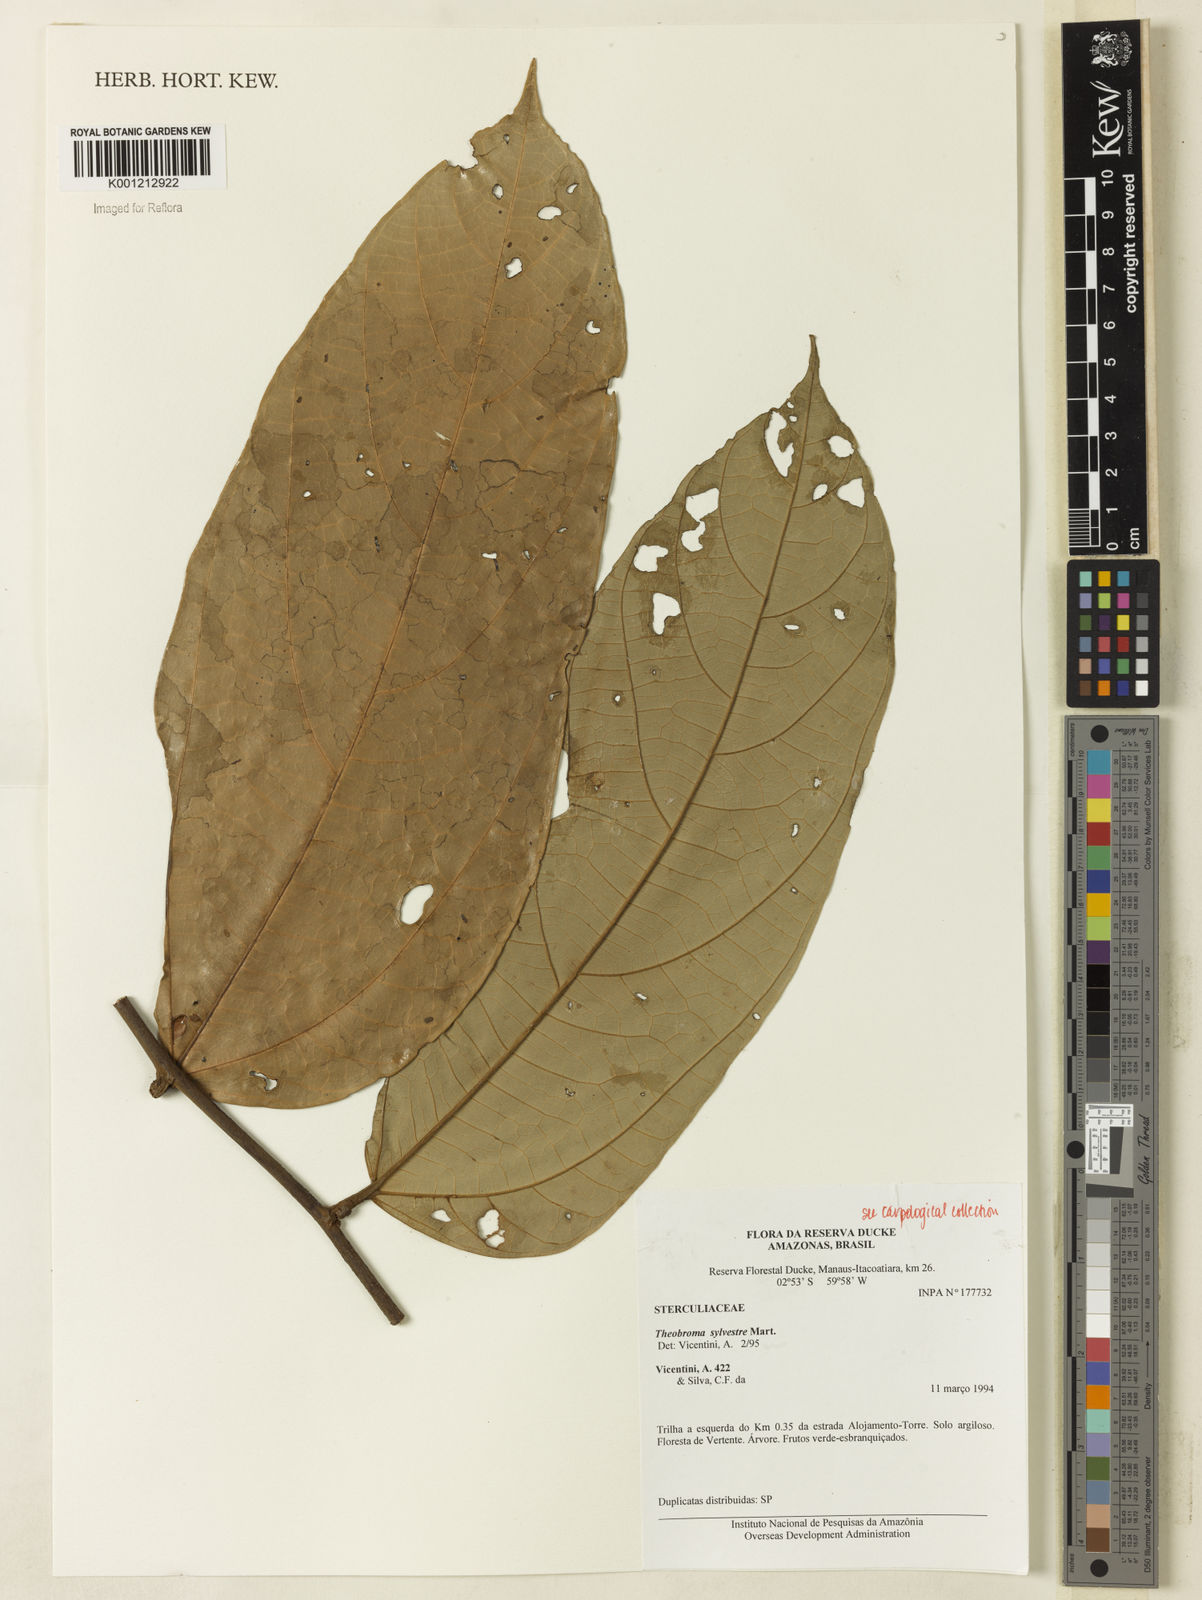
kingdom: Plantae
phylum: Tracheophyta
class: Magnoliopsida
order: Malvales
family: Malvaceae
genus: Theobroma
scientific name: Theobroma sylvestre
